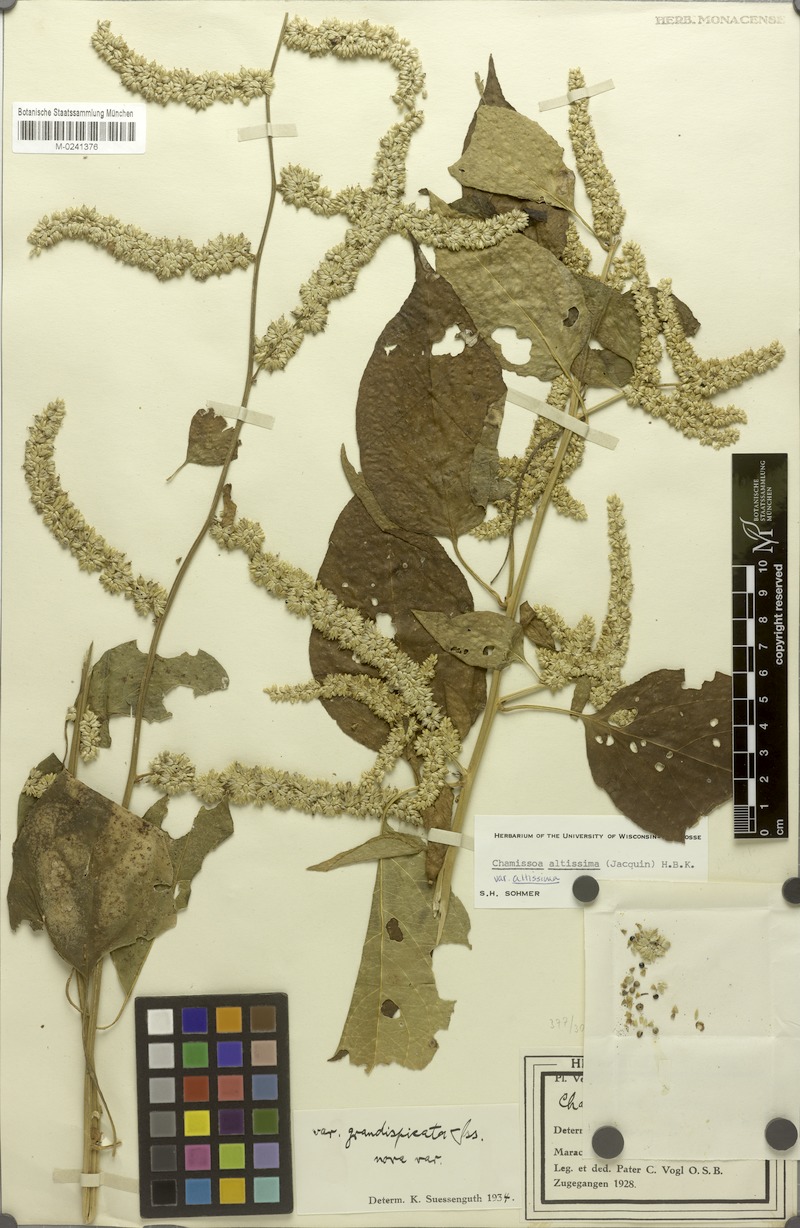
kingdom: Plantae
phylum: Tracheophyta
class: Magnoliopsida
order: Caryophyllales
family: Amaranthaceae
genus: Chamissoa
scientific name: Chamissoa altissima
